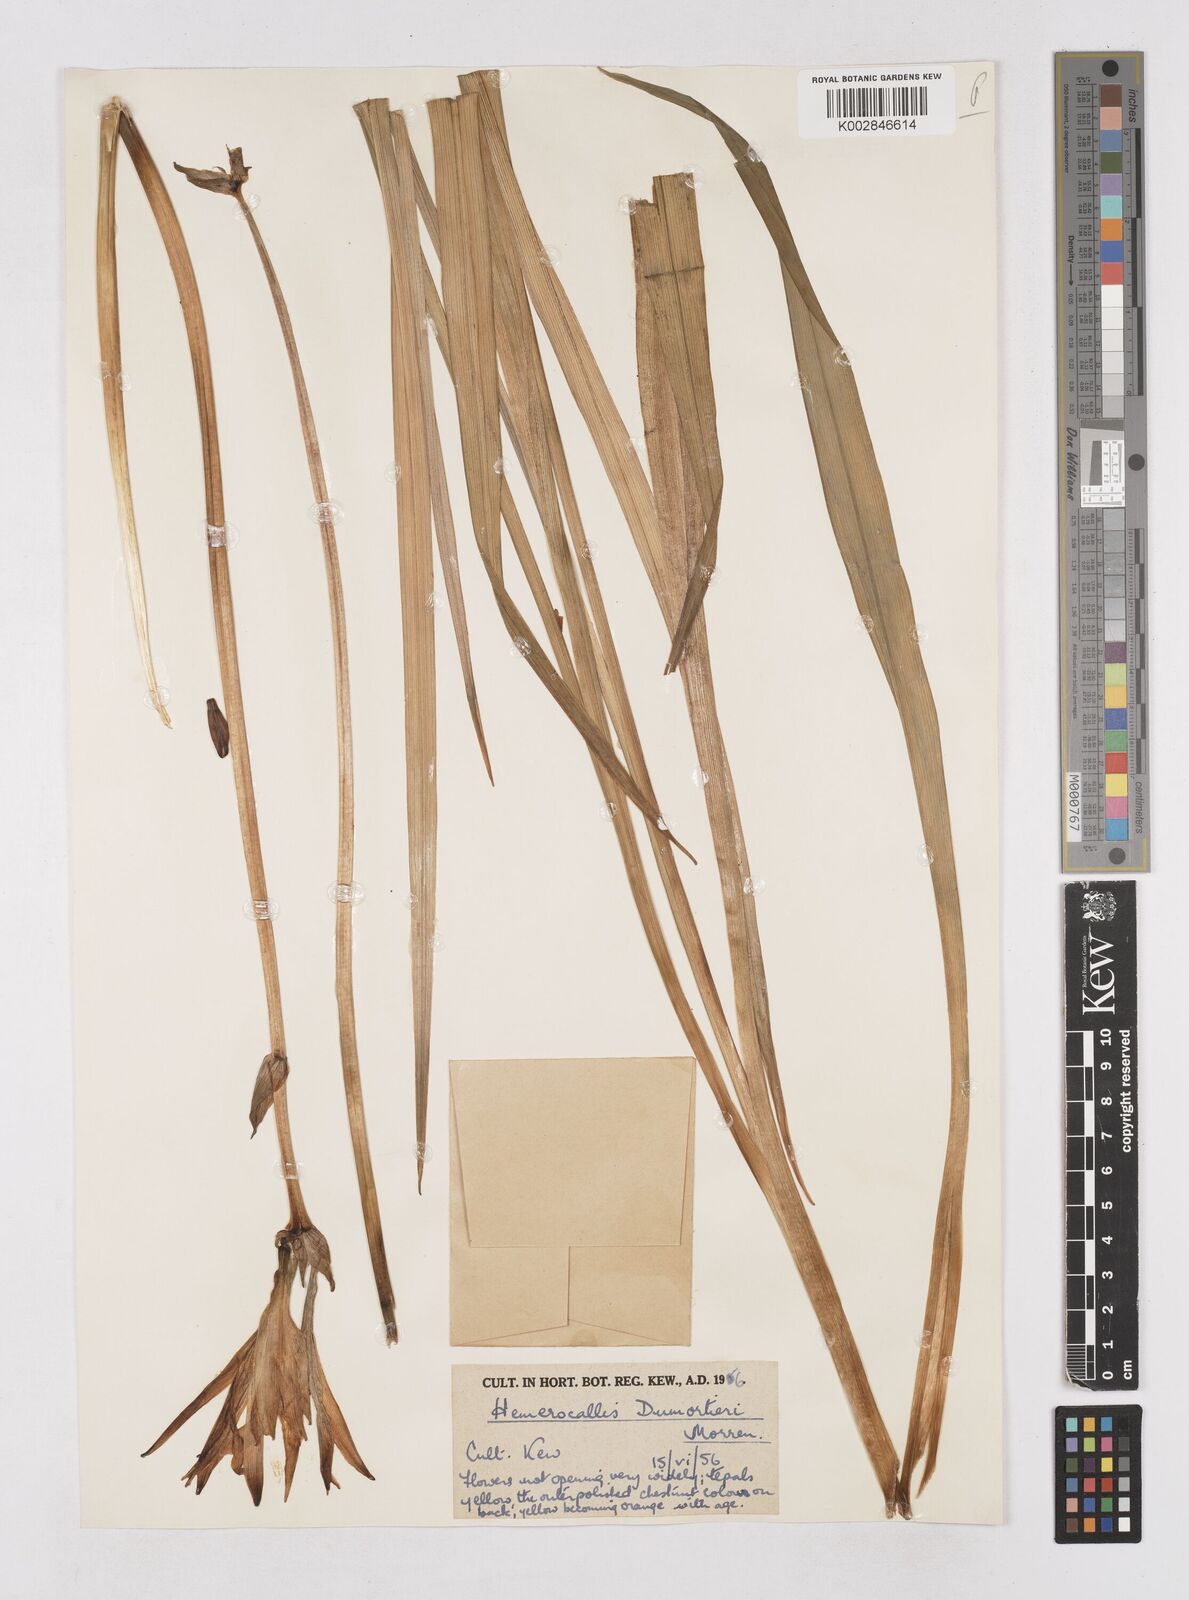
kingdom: Plantae
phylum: Tracheophyta
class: Liliopsida
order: Asparagales
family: Asphodelaceae
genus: Hemerocallis
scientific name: Hemerocallis dumortieri
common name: Dumortier's day-lily
